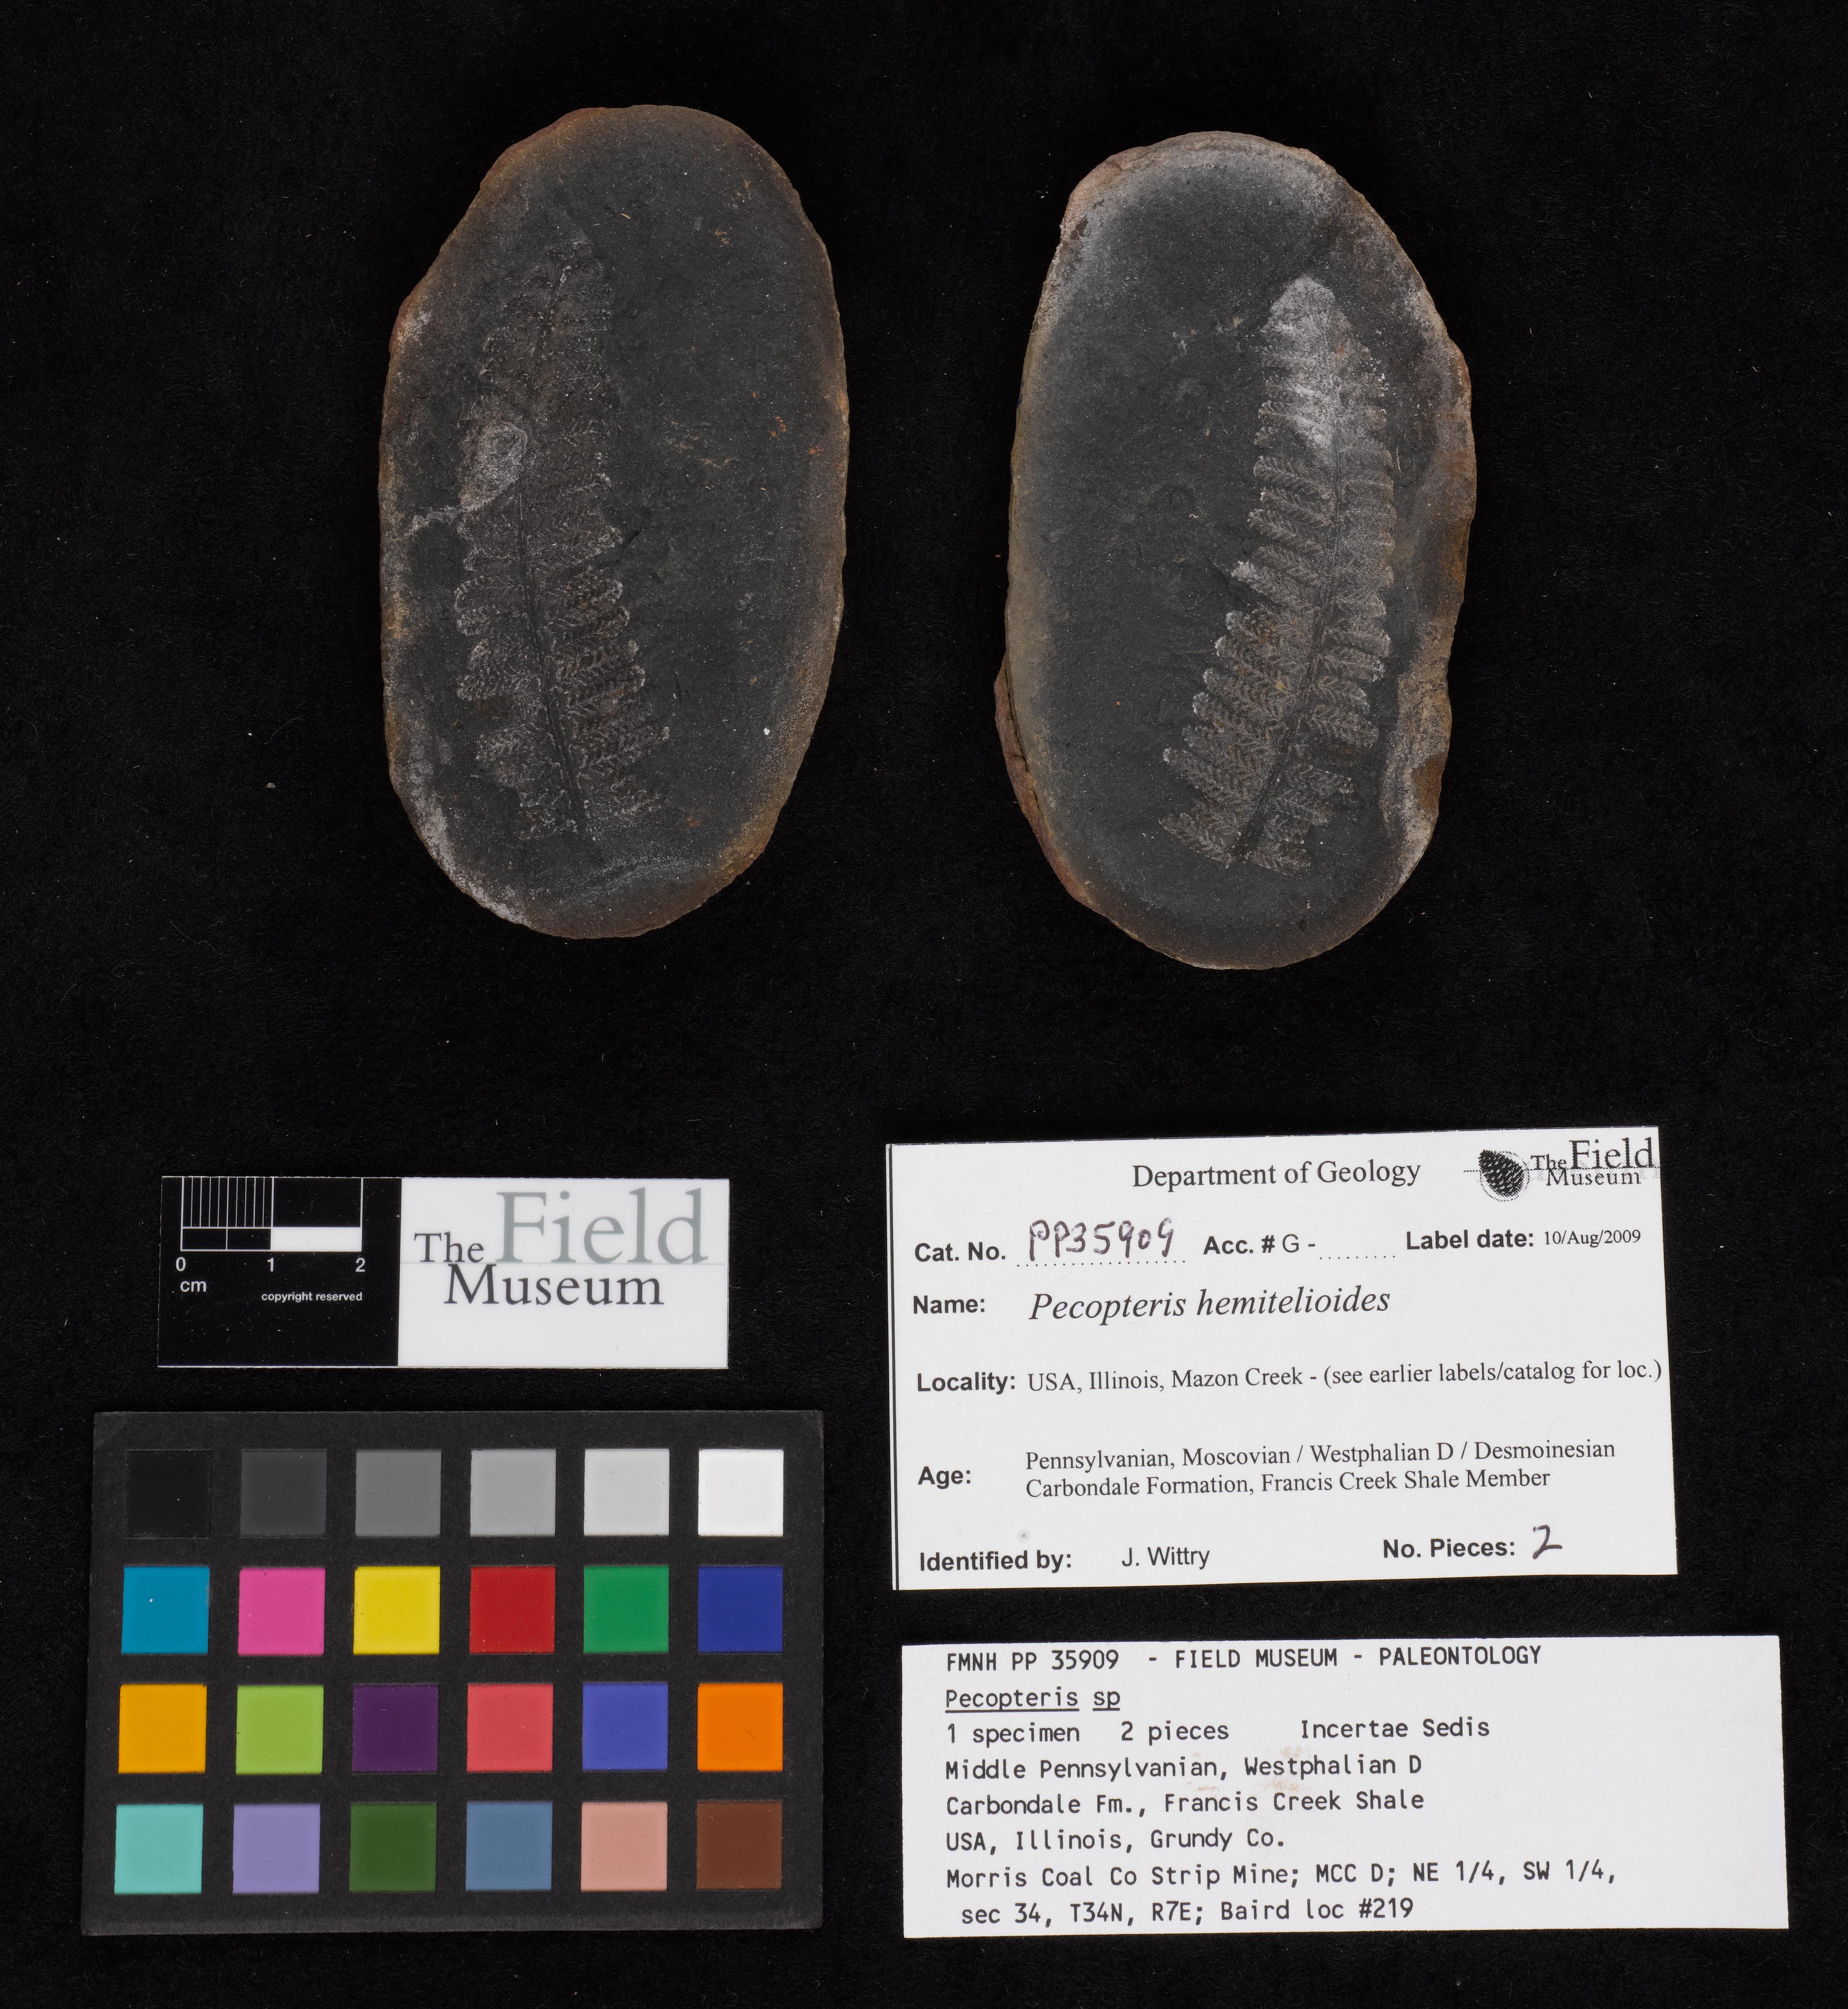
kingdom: Plantae
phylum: Tracheophyta
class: Polypodiopsida
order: Marattiales
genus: Cyathocarpus
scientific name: Cyathocarpus
